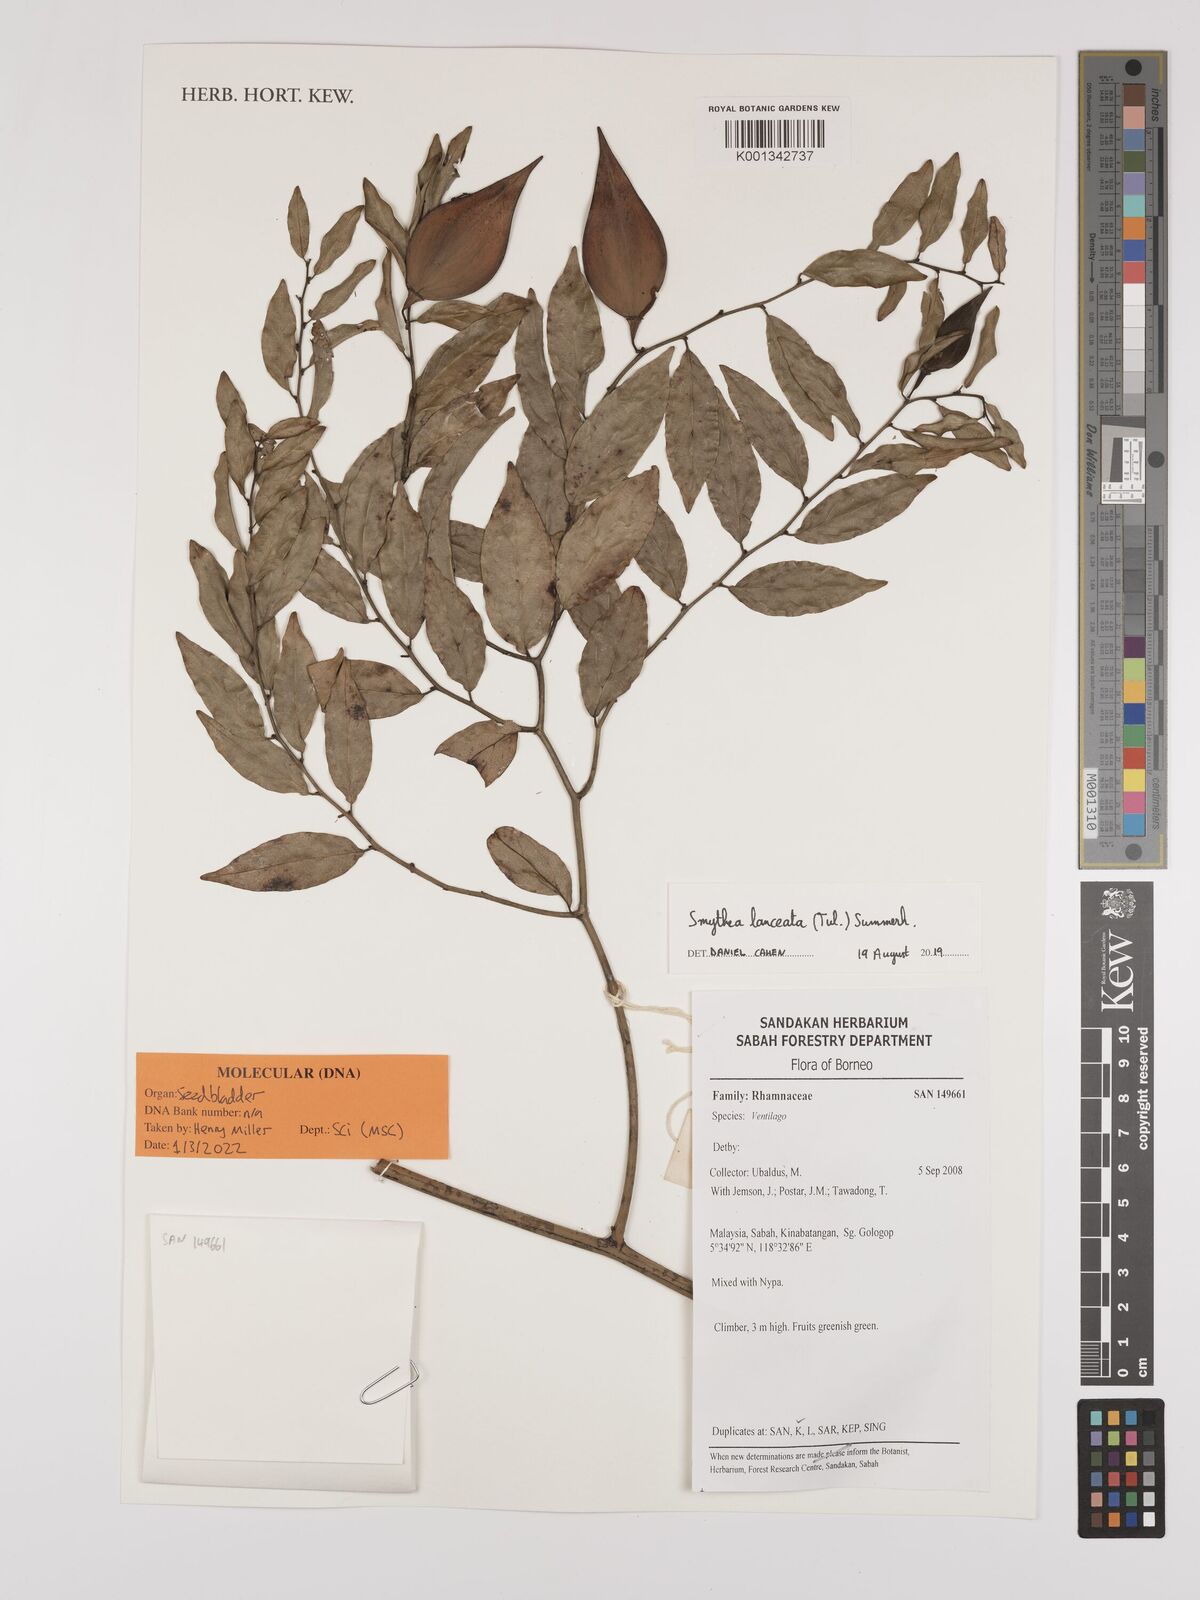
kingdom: Plantae
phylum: Tracheophyta
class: Magnoliopsida
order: Rosales
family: Rhamnaceae
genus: Smythea
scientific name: Smythea lanceata
